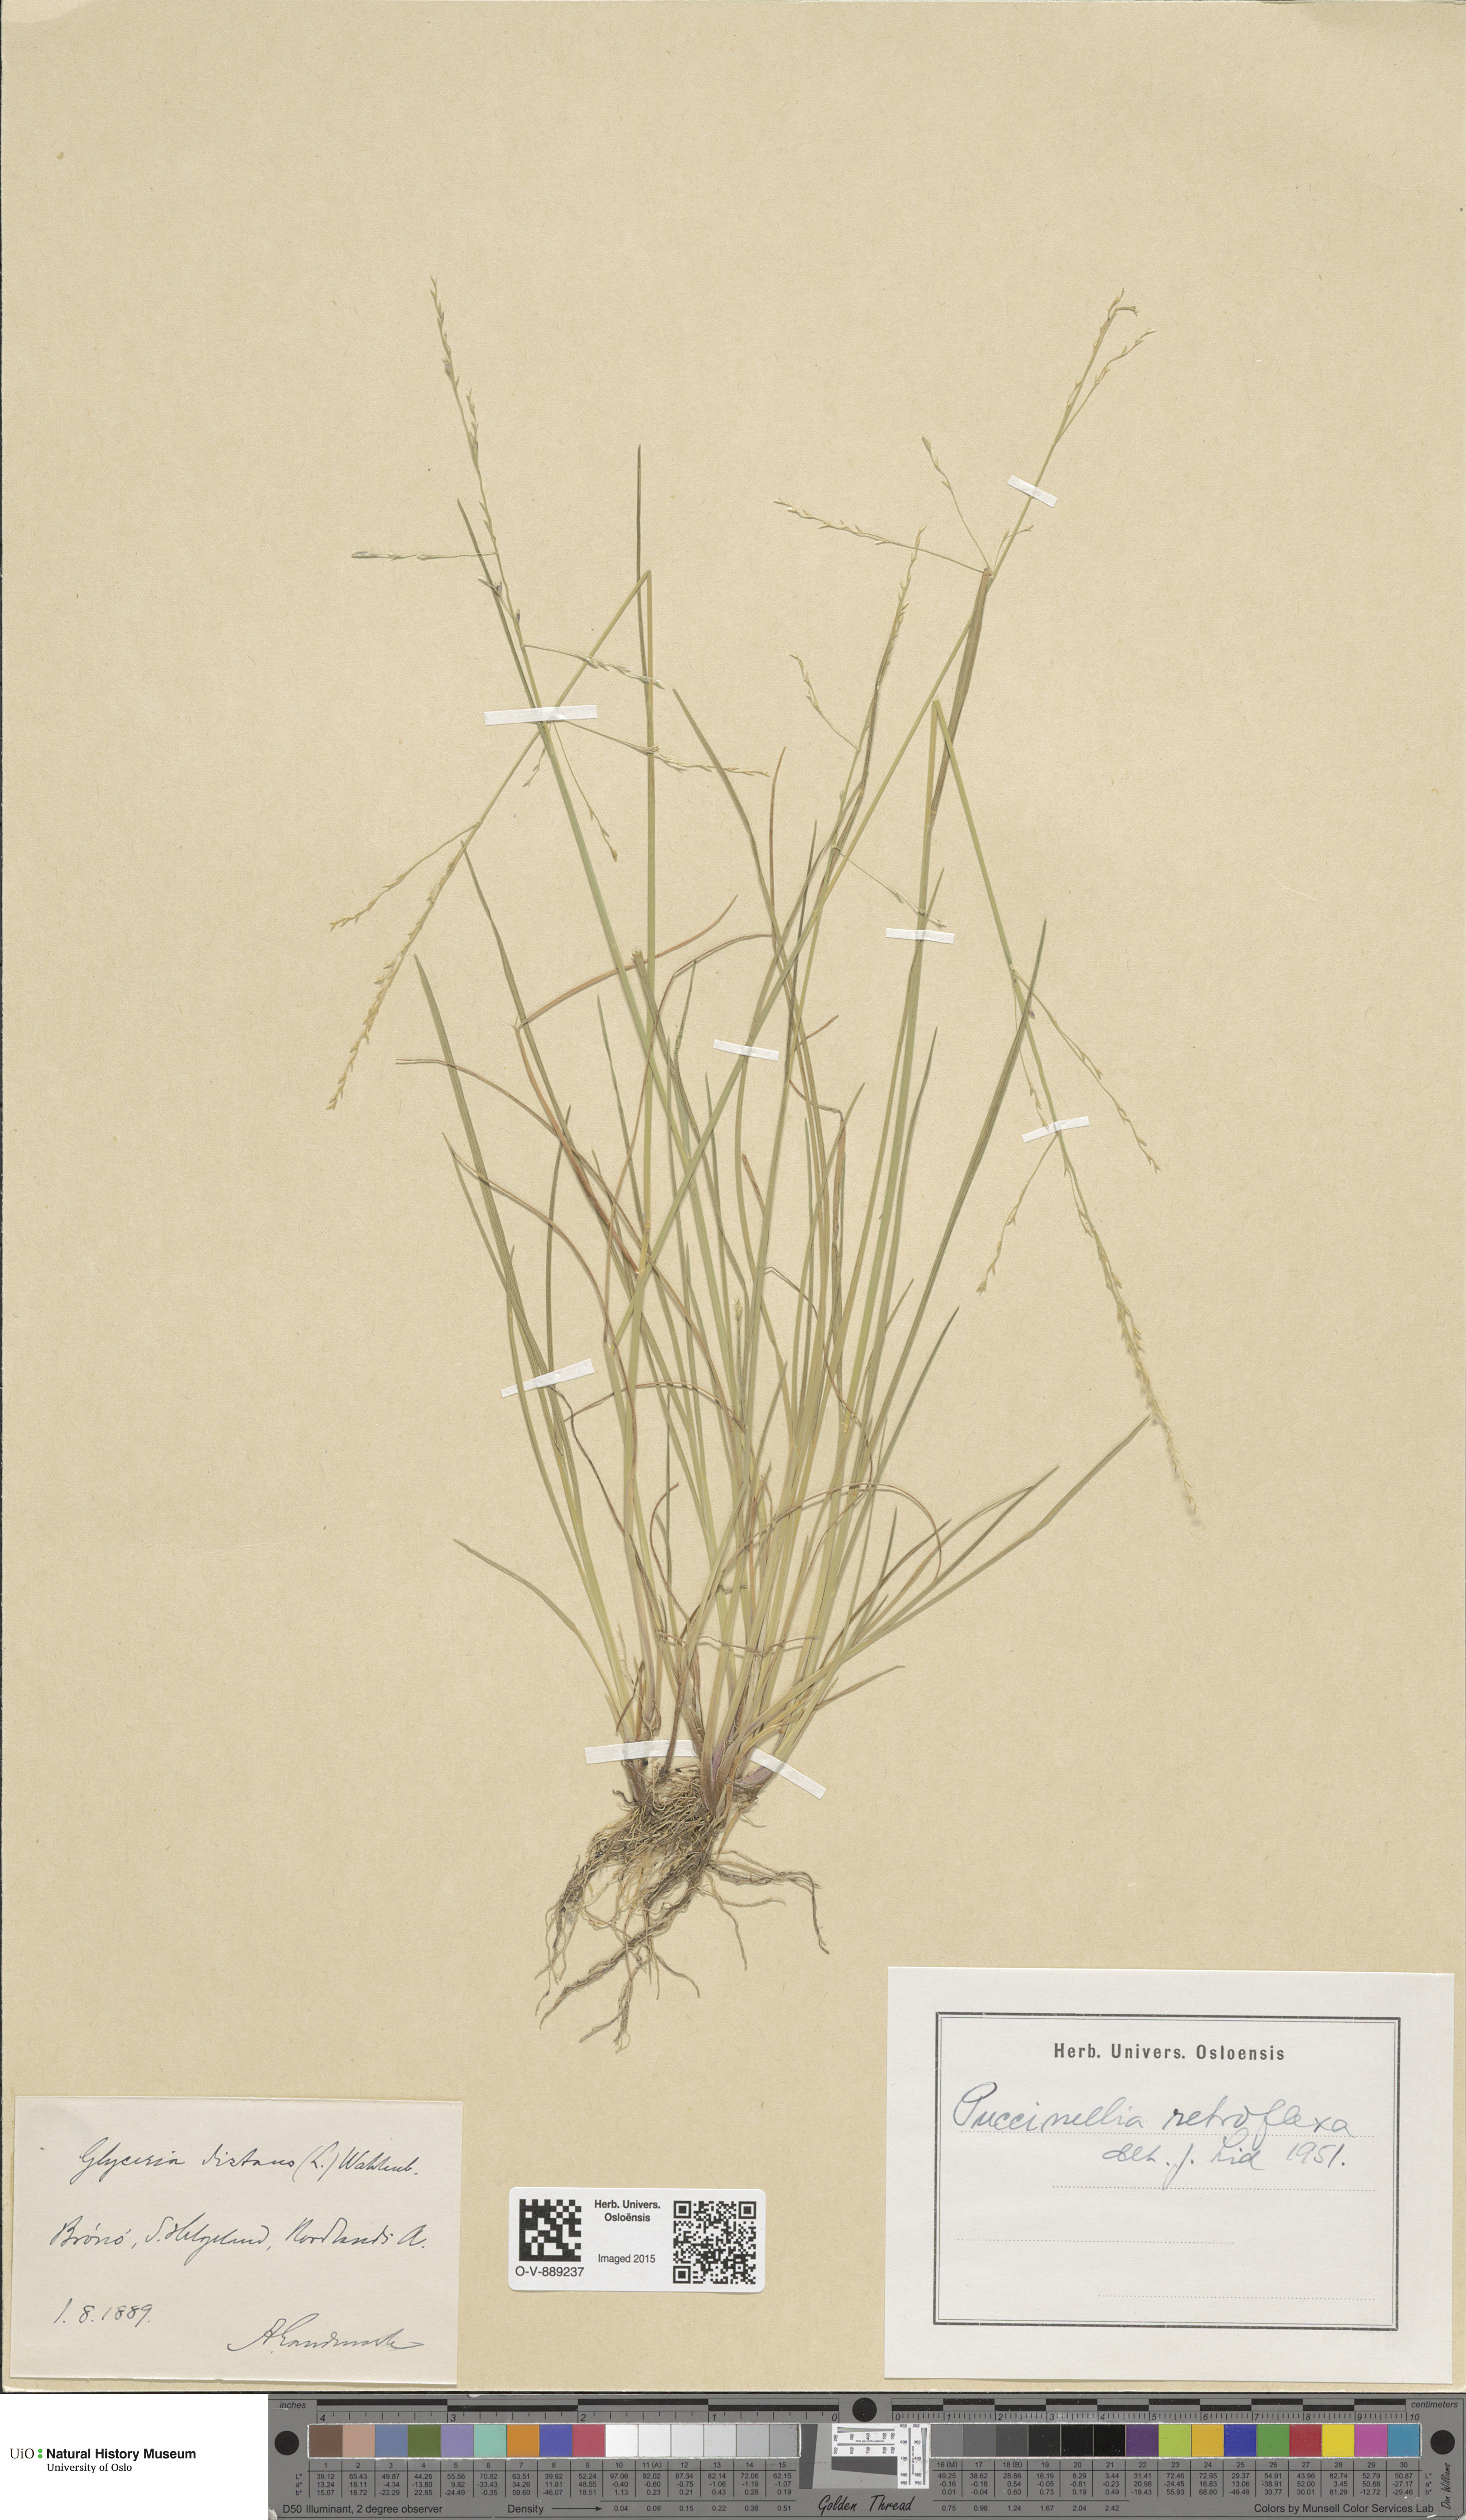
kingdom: Plantae
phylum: Tracheophyta
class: Liliopsida
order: Poales
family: Poaceae
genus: Puccinellia
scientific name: Puccinellia distans
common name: Weeping alkaligrass
